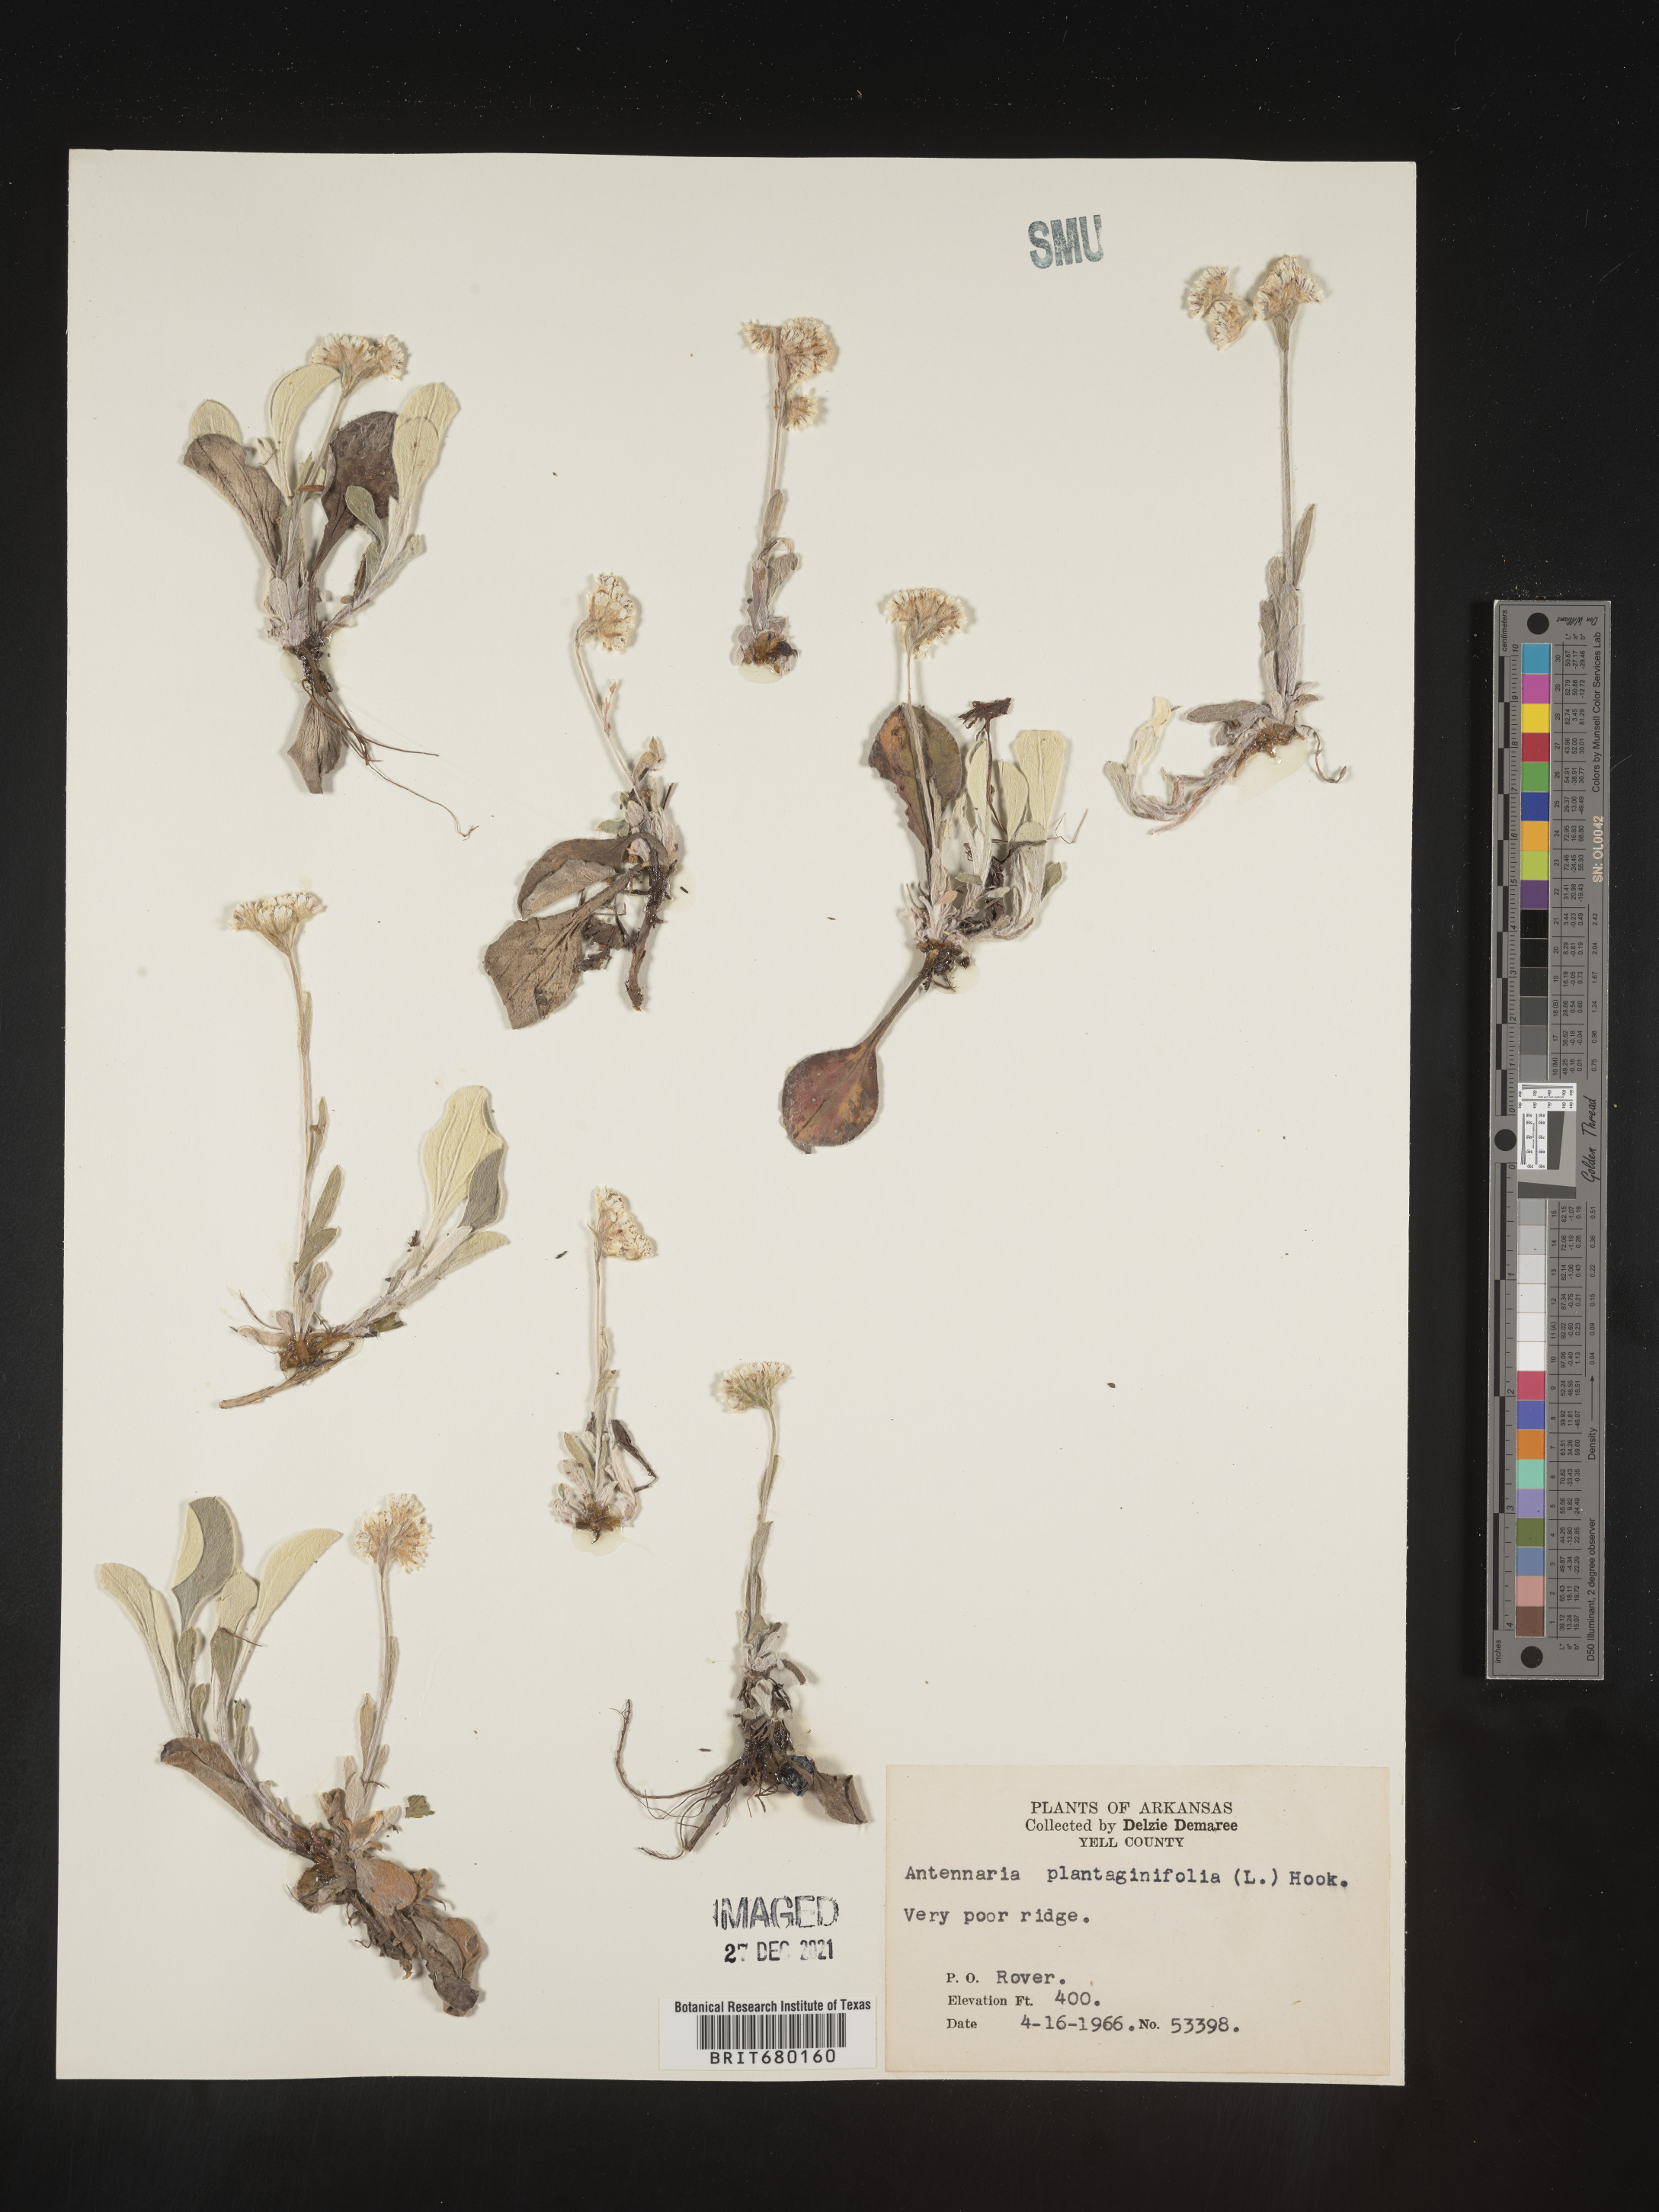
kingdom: Plantae
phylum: Tracheophyta
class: Magnoliopsida
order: Asterales
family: Asteraceae
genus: Antennaria
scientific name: Antennaria plantaginifolia
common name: Plantain-leaved pussytoes
